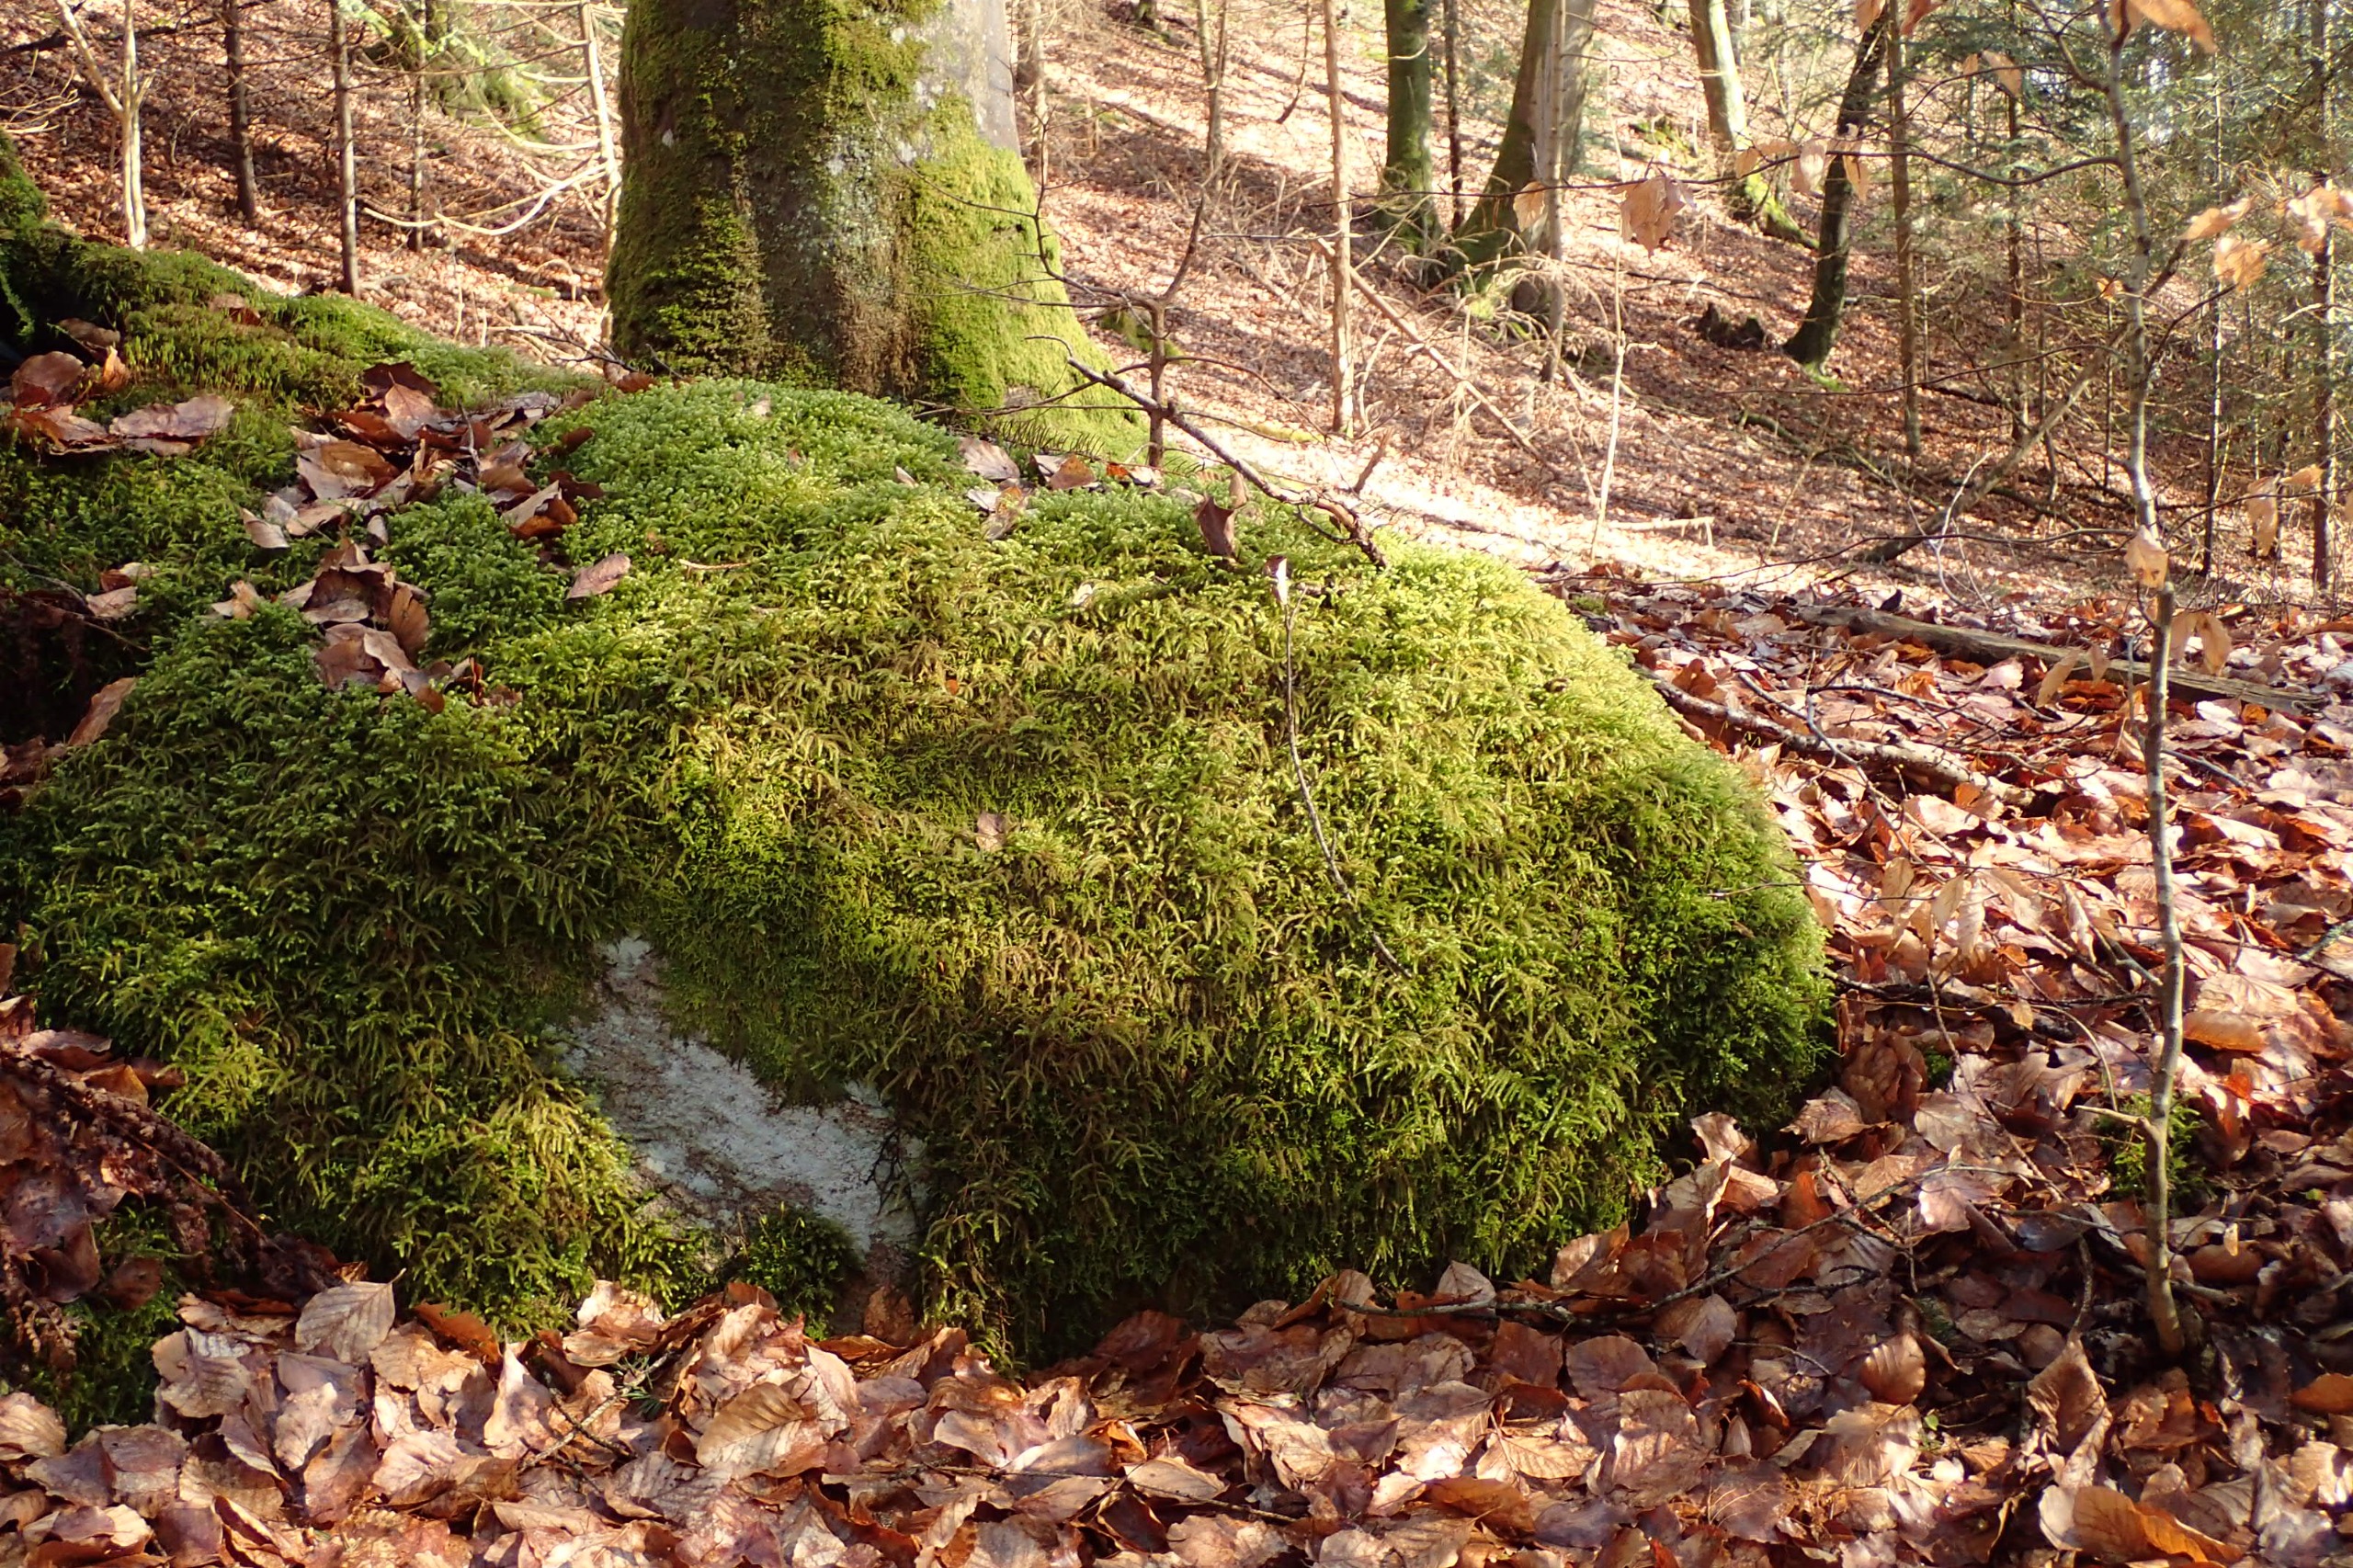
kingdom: Plantae
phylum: Bryophyta
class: Bryopsida
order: Hypnales
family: Hylocomiaceae
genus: Rhytidiadelphus
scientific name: Rhytidiadelphus loreus
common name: Ulvefod-kransemos
